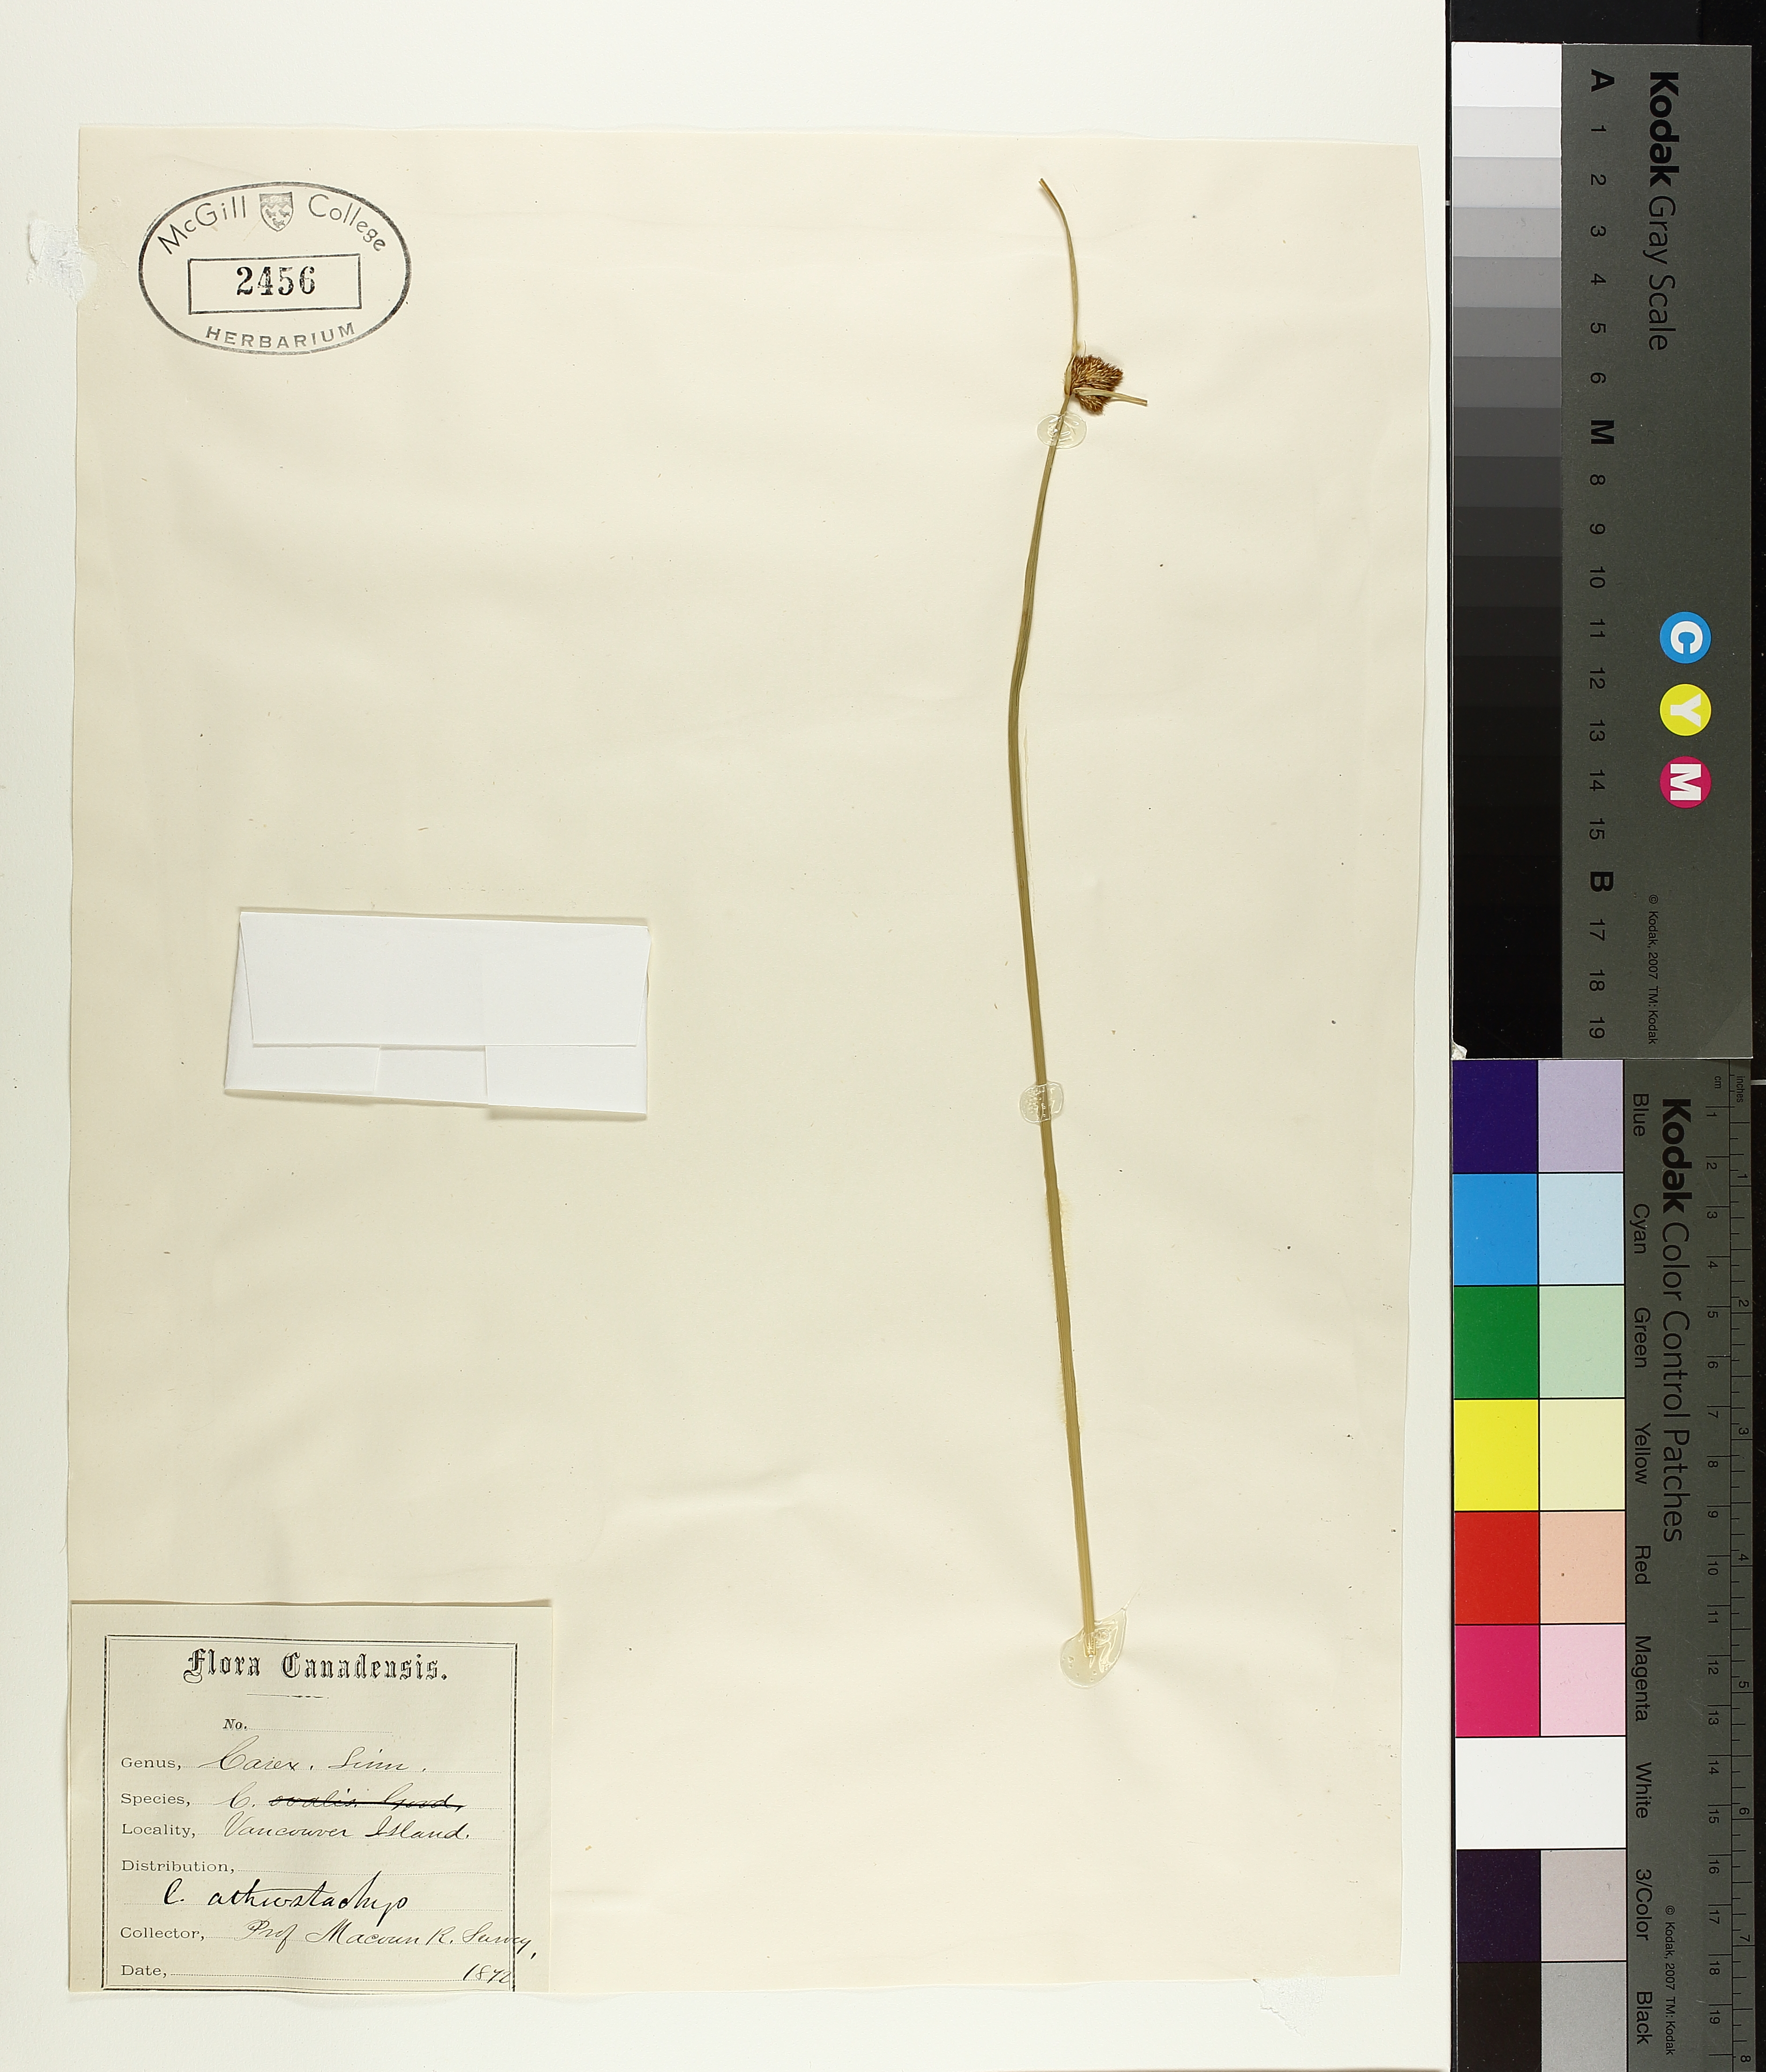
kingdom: Plantae
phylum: Tracheophyta
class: Liliopsida
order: Poales
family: Cyperaceae
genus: Carex
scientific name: Carex athrostachya
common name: Slenderbeak sedge
